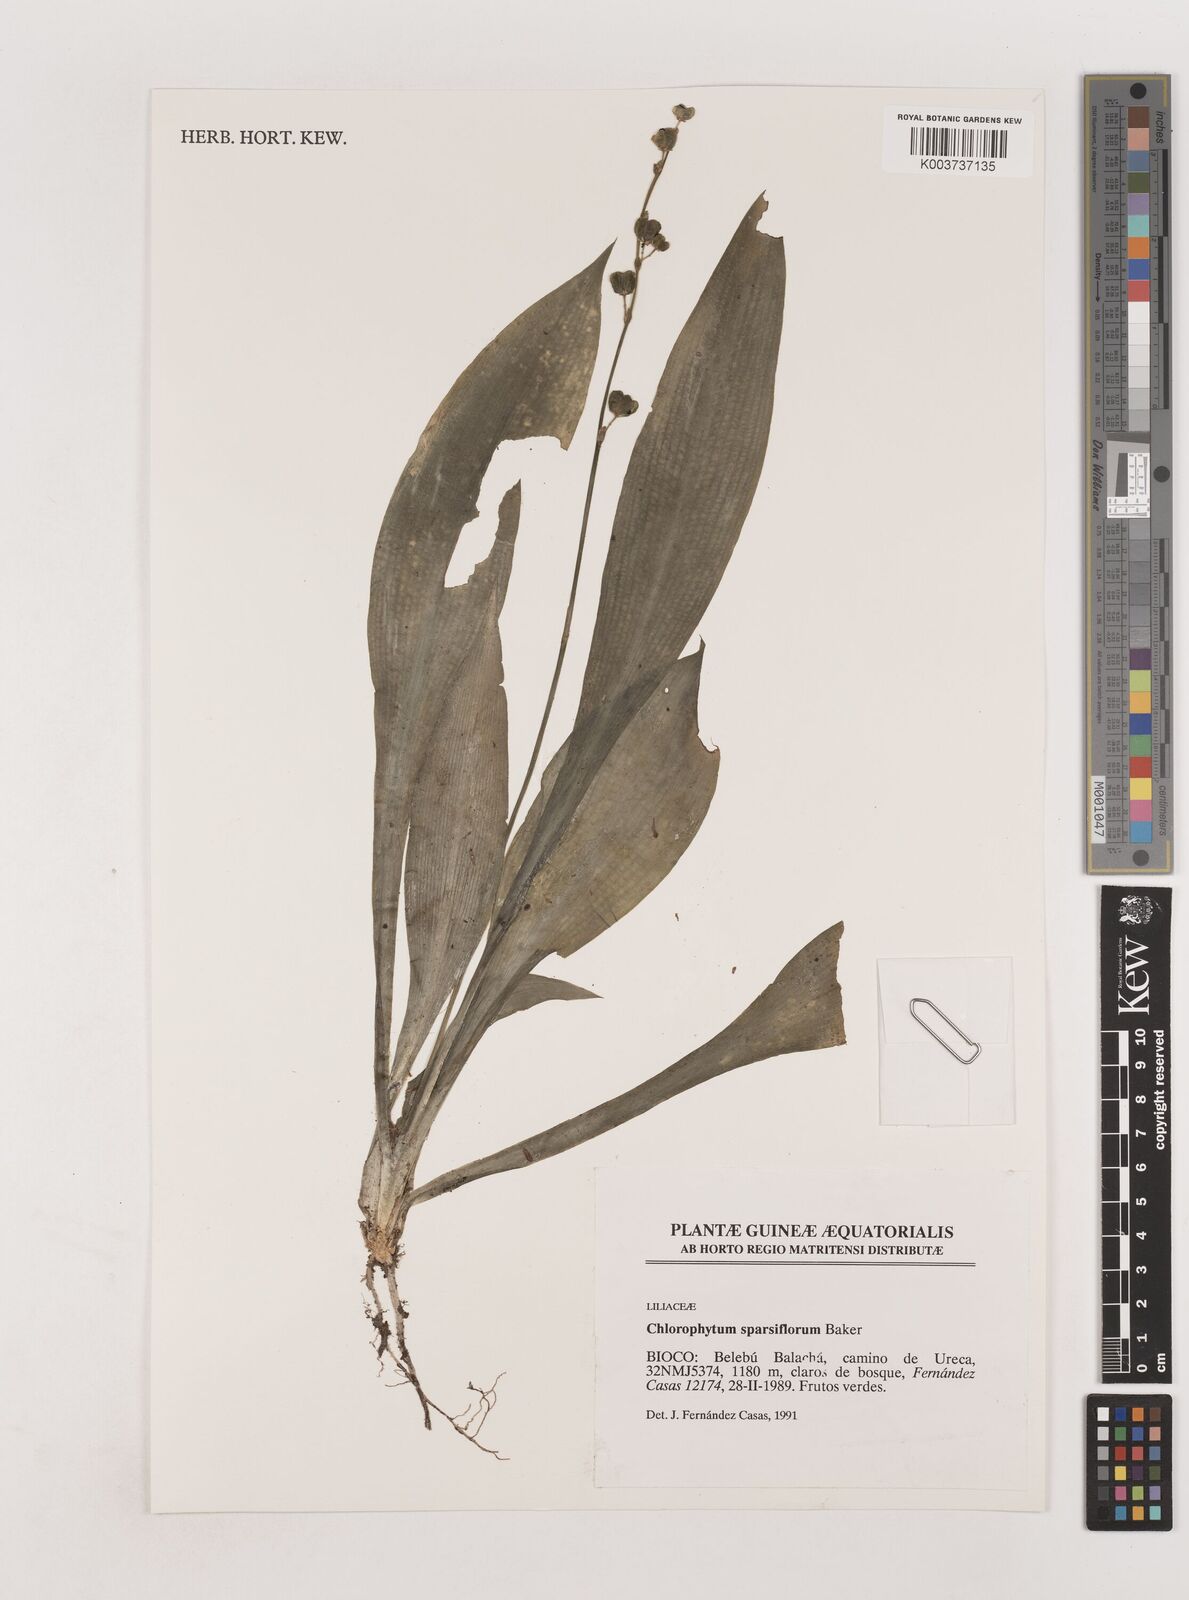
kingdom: Plantae
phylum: Tracheophyta
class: Liliopsida
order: Asparagales
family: Asparagaceae
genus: Chlorophytum
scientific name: Chlorophytum sparsiflorum
